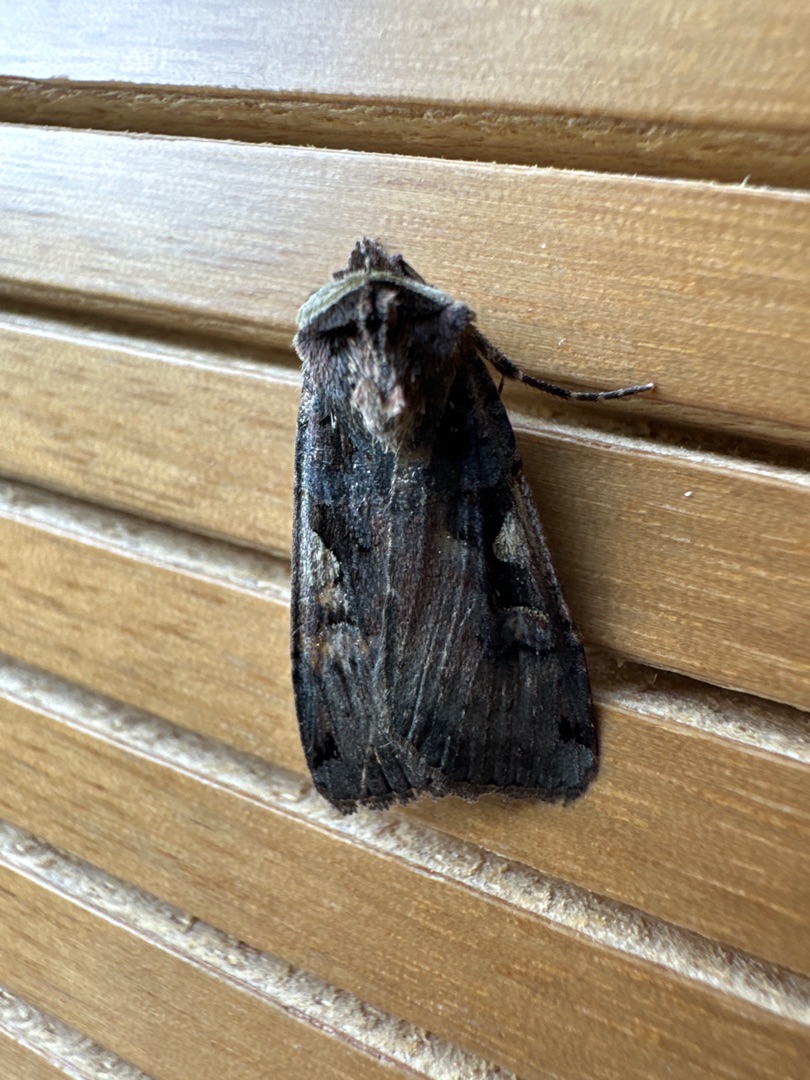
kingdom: Animalia
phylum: Arthropoda
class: Insecta
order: Lepidoptera
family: Noctuidae
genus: Xestia
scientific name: Xestia c-nigrum
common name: Det sorte c
